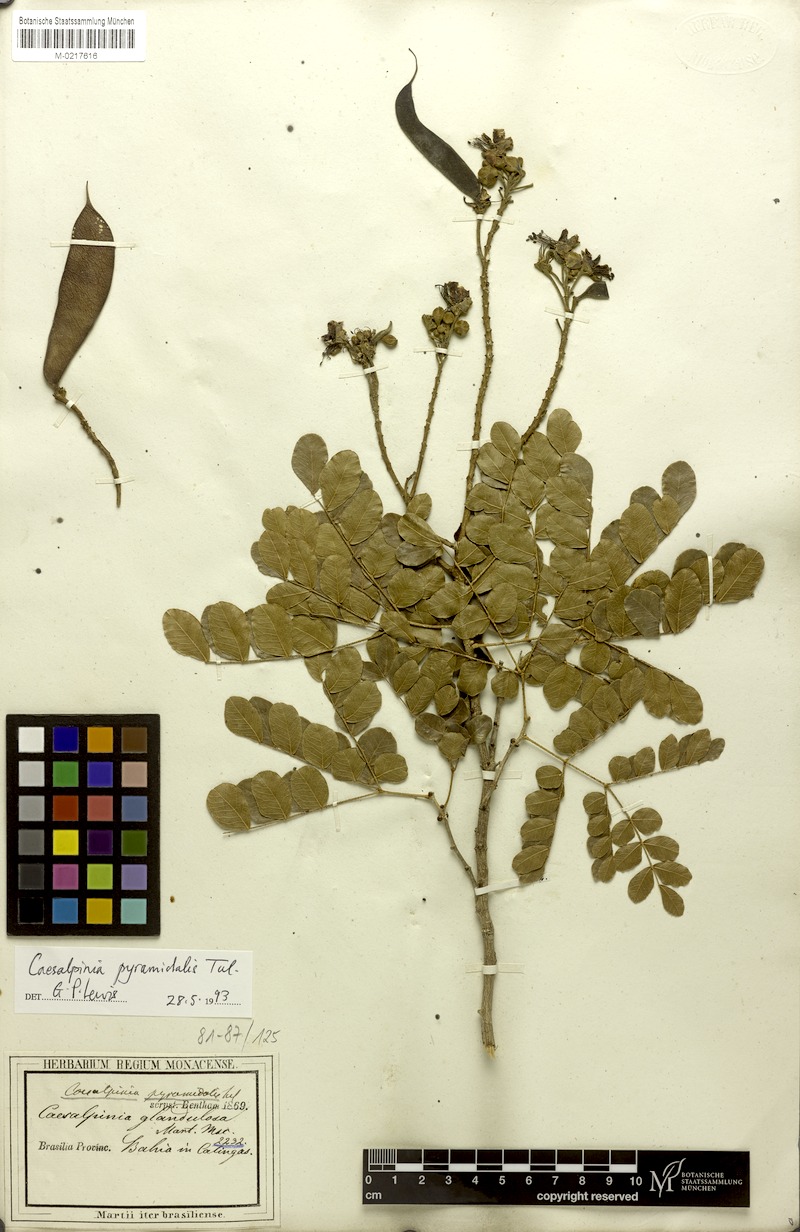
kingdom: Plantae
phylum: Tracheophyta
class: Magnoliopsida
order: Fabales
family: Fabaceae
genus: Cenostigma
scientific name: Cenostigma pyramidale
